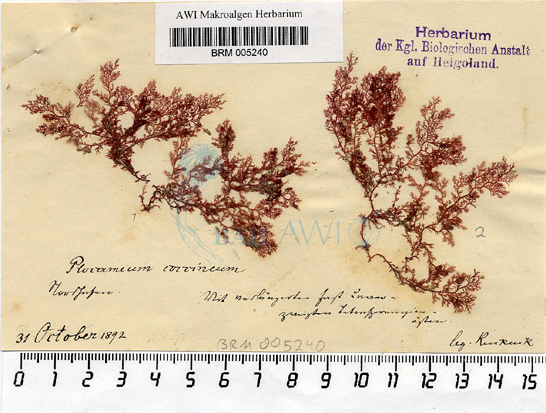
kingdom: Plantae
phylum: Rhodophyta
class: Florideophyceae
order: Plocamiales
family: Plocamiaceae
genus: Plocamium
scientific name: Plocamium cartilagineum
